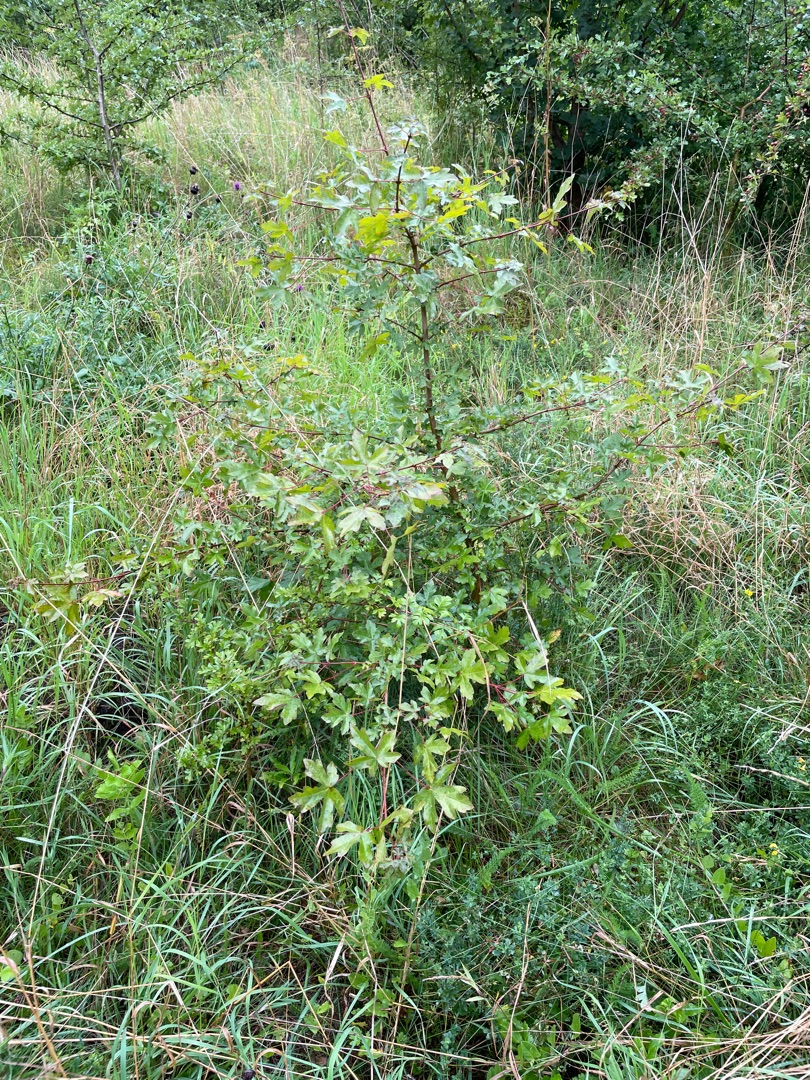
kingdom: Plantae
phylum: Tracheophyta
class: Magnoliopsida
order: Sapindales
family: Sapindaceae
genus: Acer
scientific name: Acer campestre
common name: Navr
